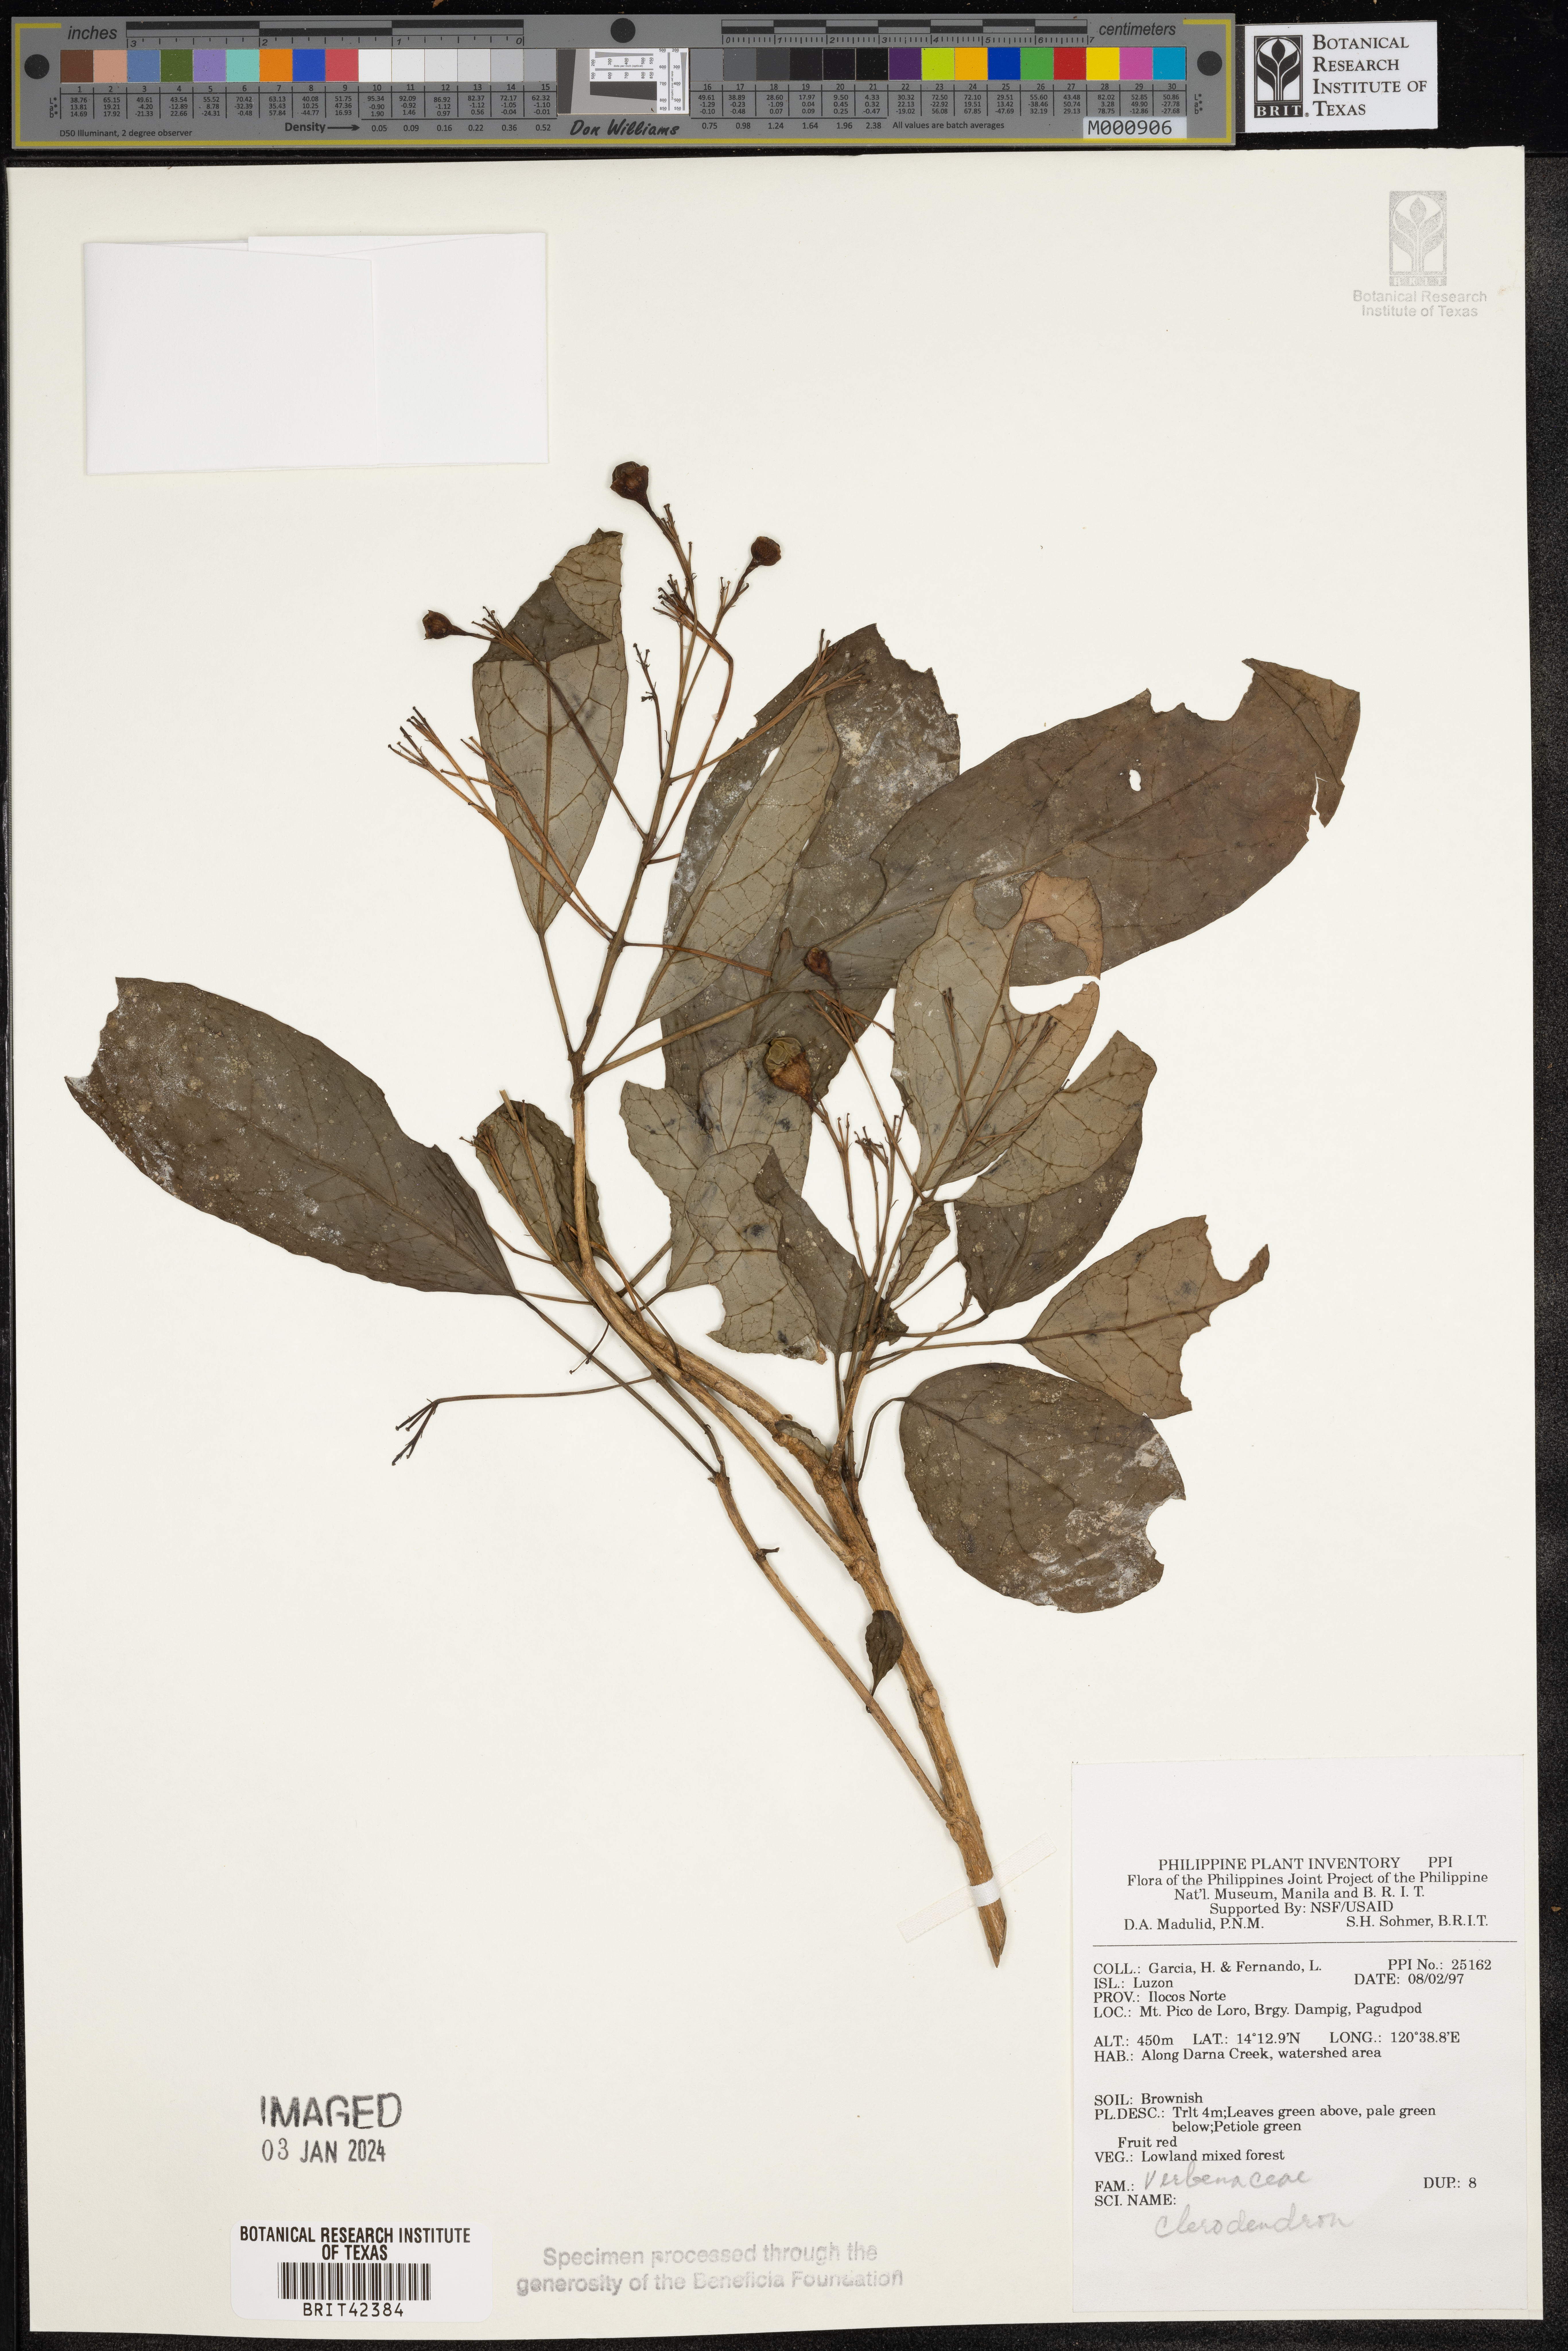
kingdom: Plantae
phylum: Tracheophyta
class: Magnoliopsida
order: Lamiales
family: Lamiaceae
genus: Clerodendrum
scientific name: Clerodendrum
